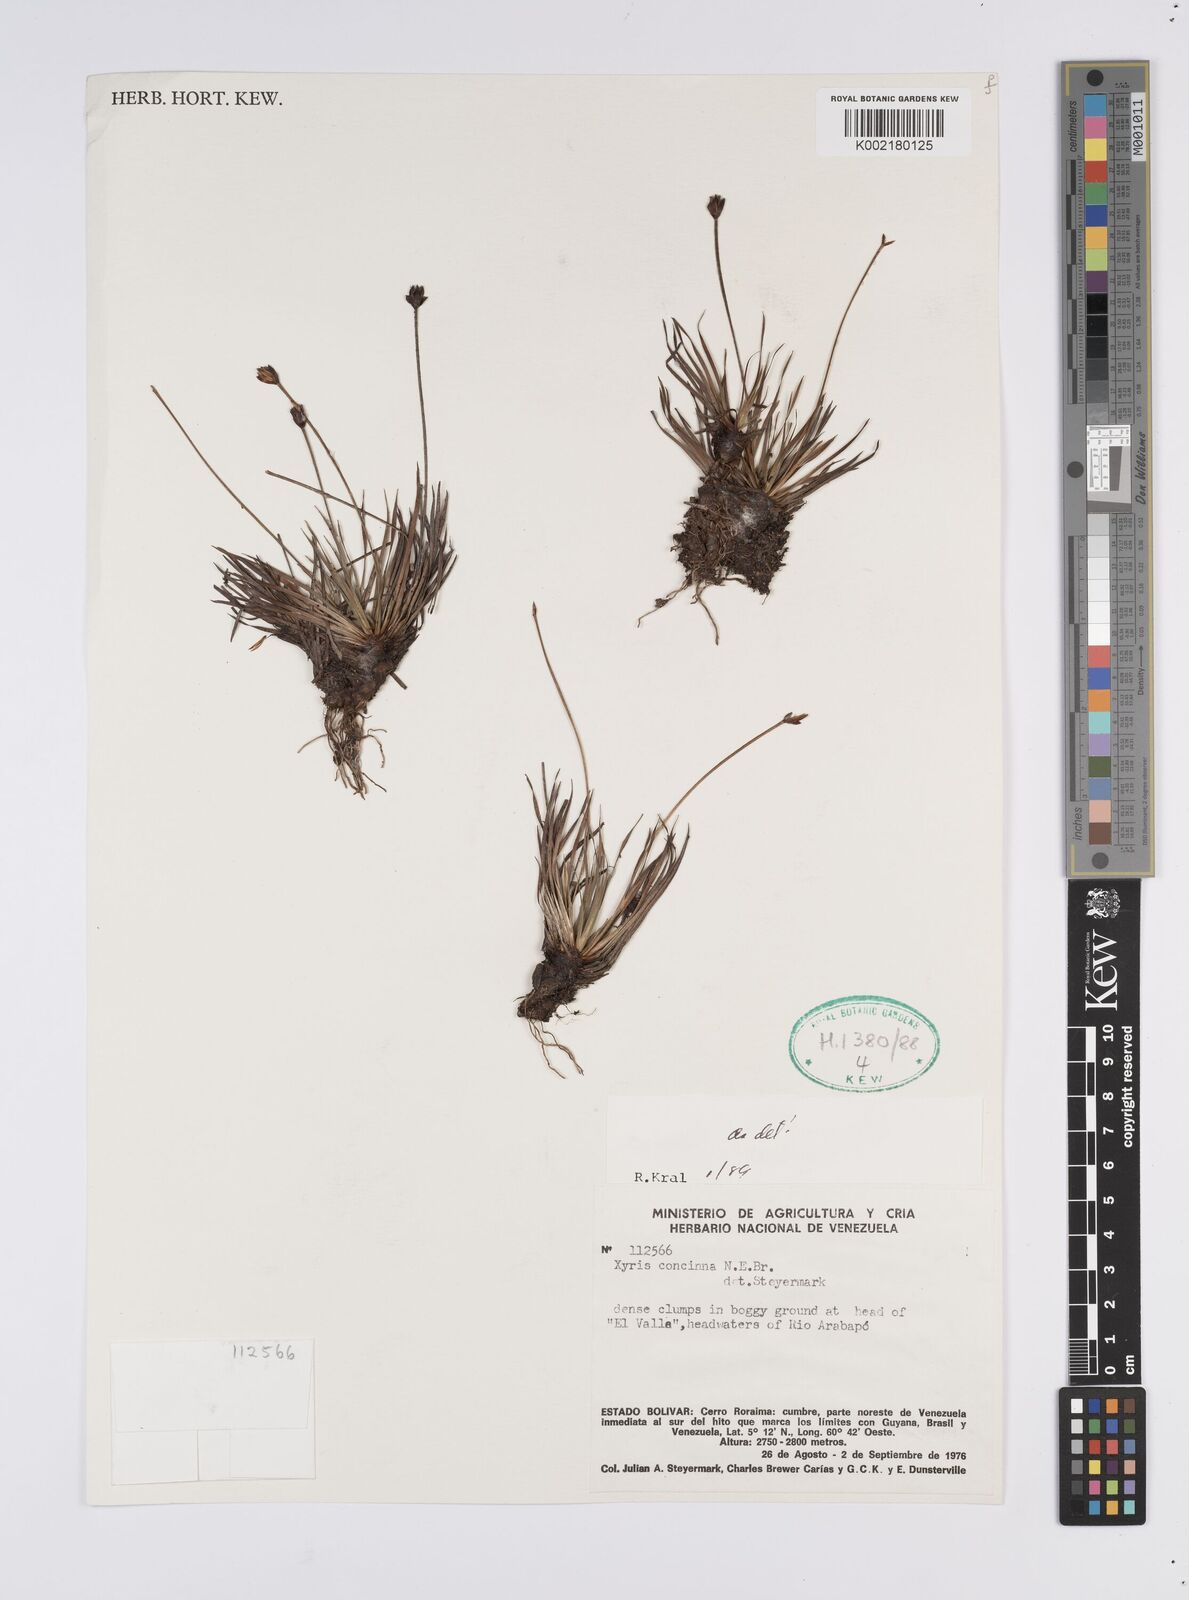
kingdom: Plantae
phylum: Tracheophyta
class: Liliopsida
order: Poales
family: Xyridaceae
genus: Xyris
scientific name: Xyris concinna
